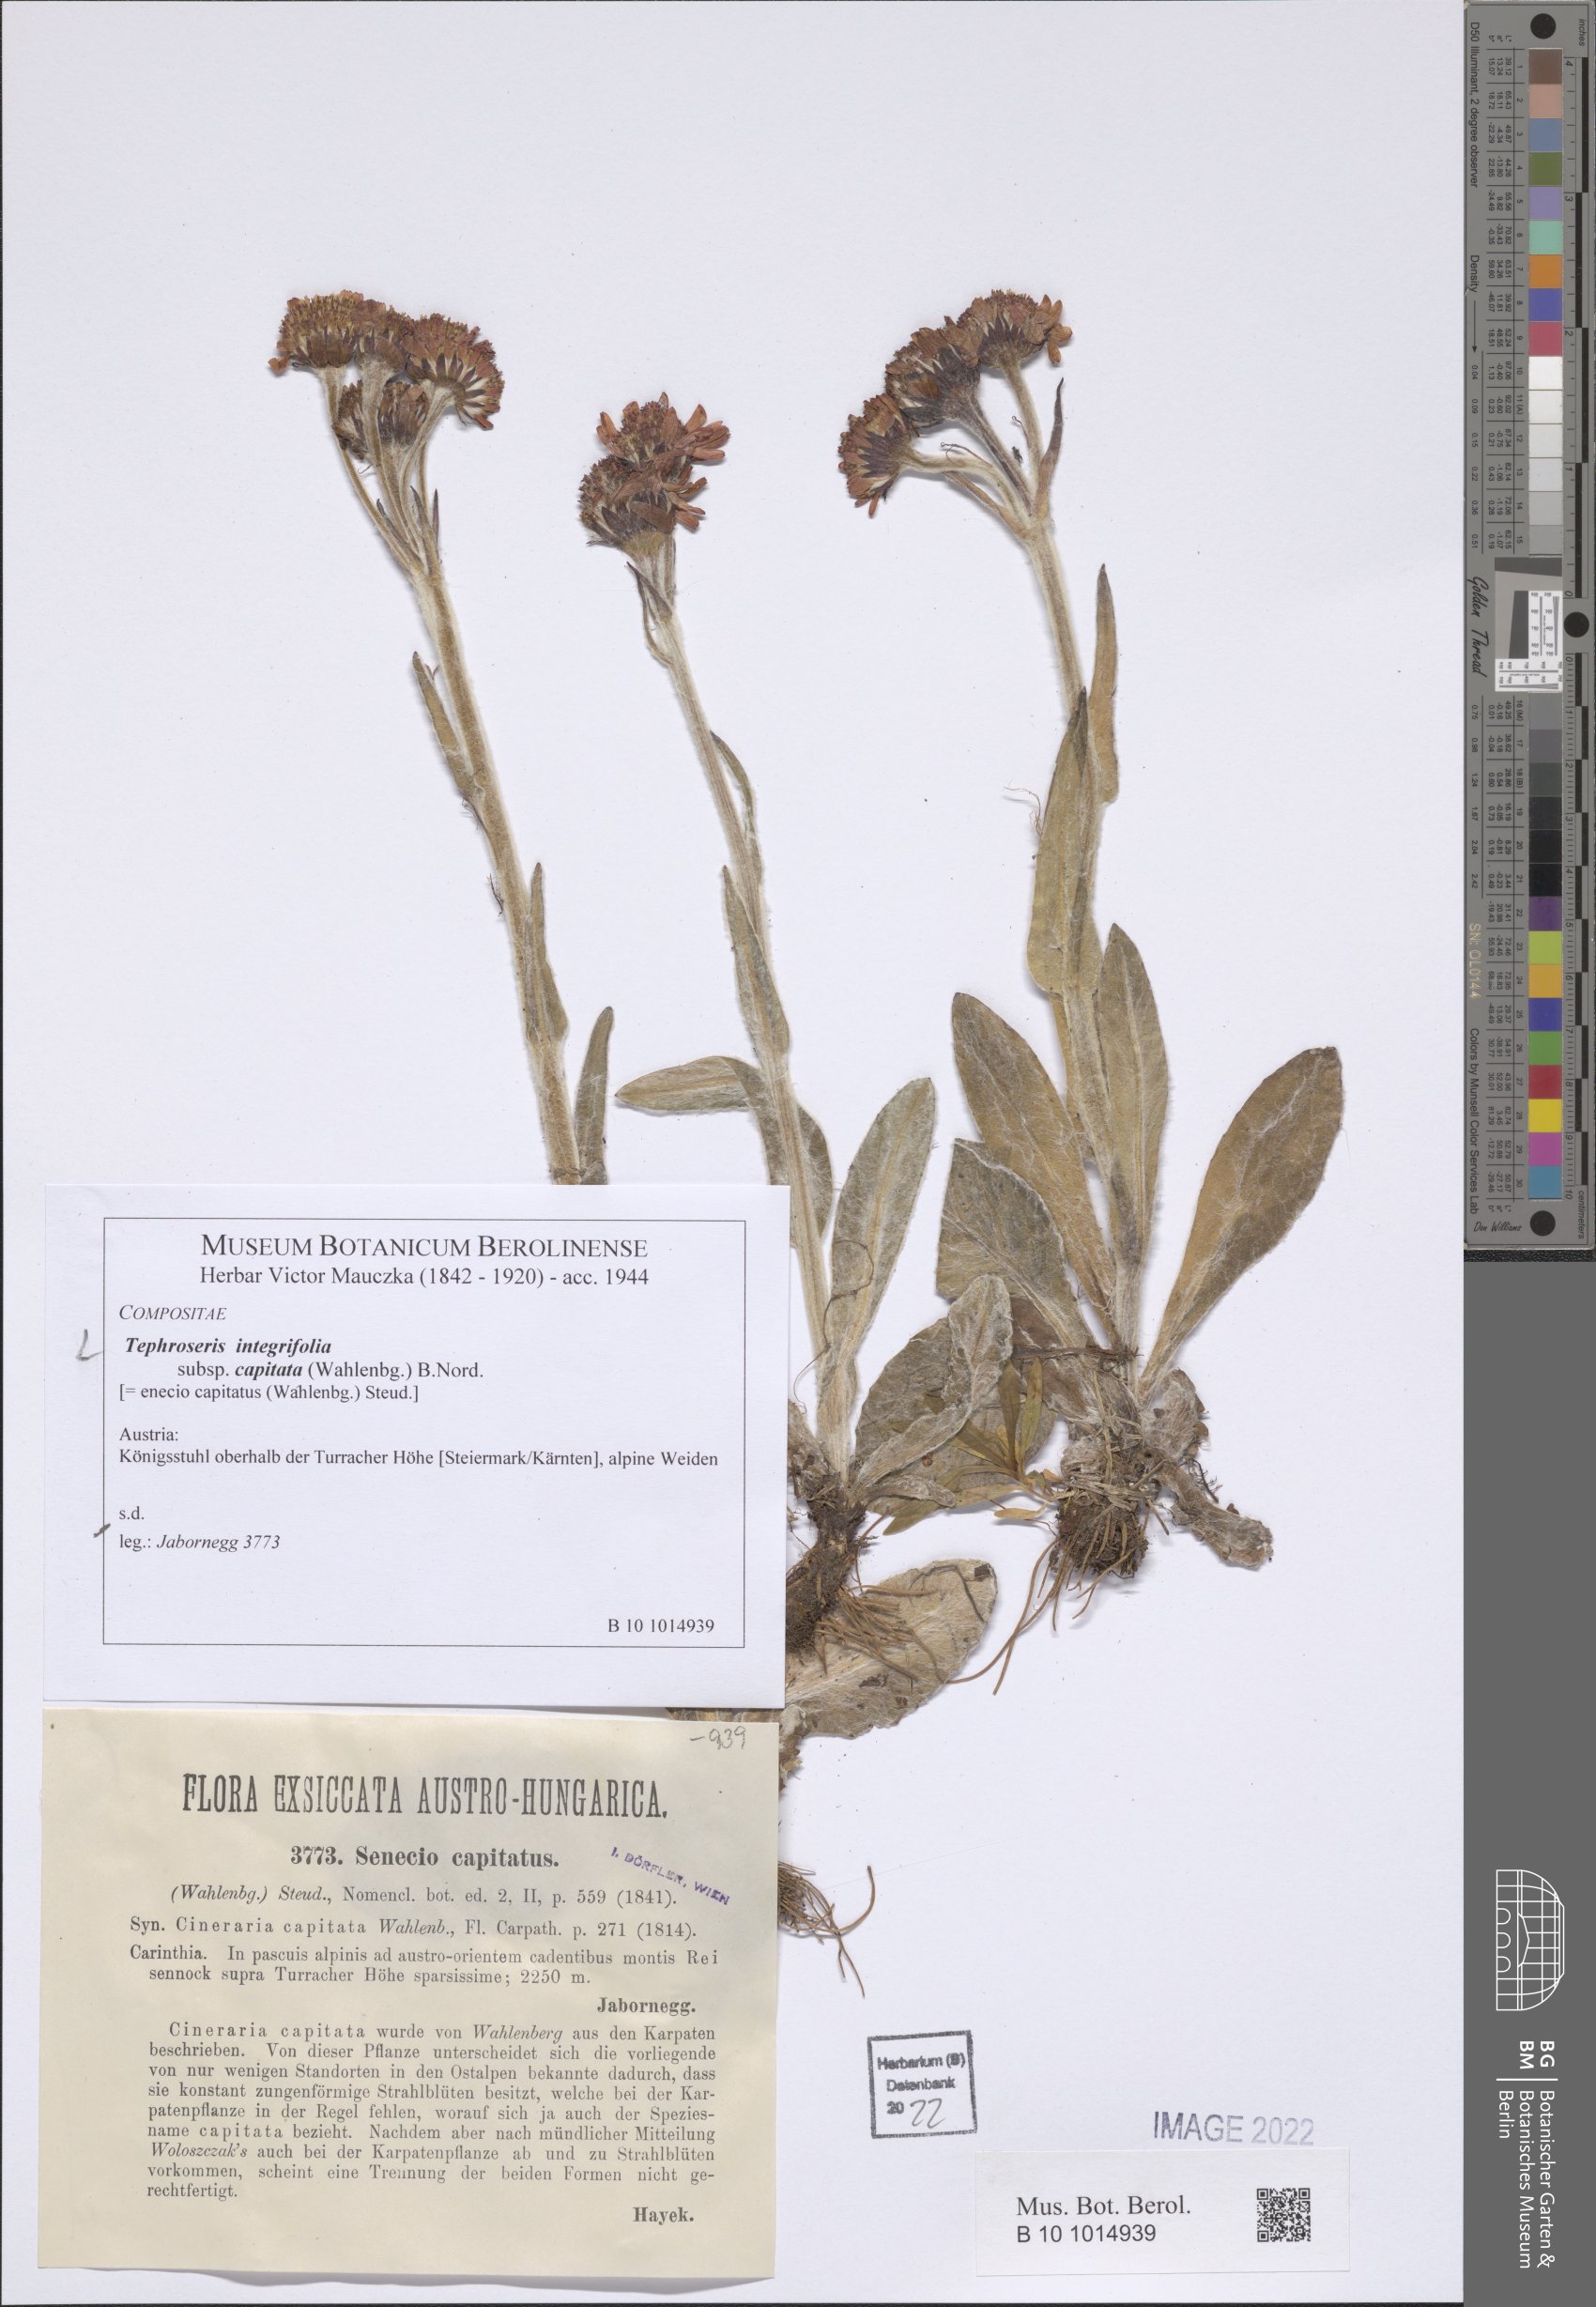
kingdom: Plantae
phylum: Tracheophyta
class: Magnoliopsida
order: Asterales
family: Asteraceae
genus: Tephroseris
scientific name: Tephroseris integrifolia
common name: Field fleawort
